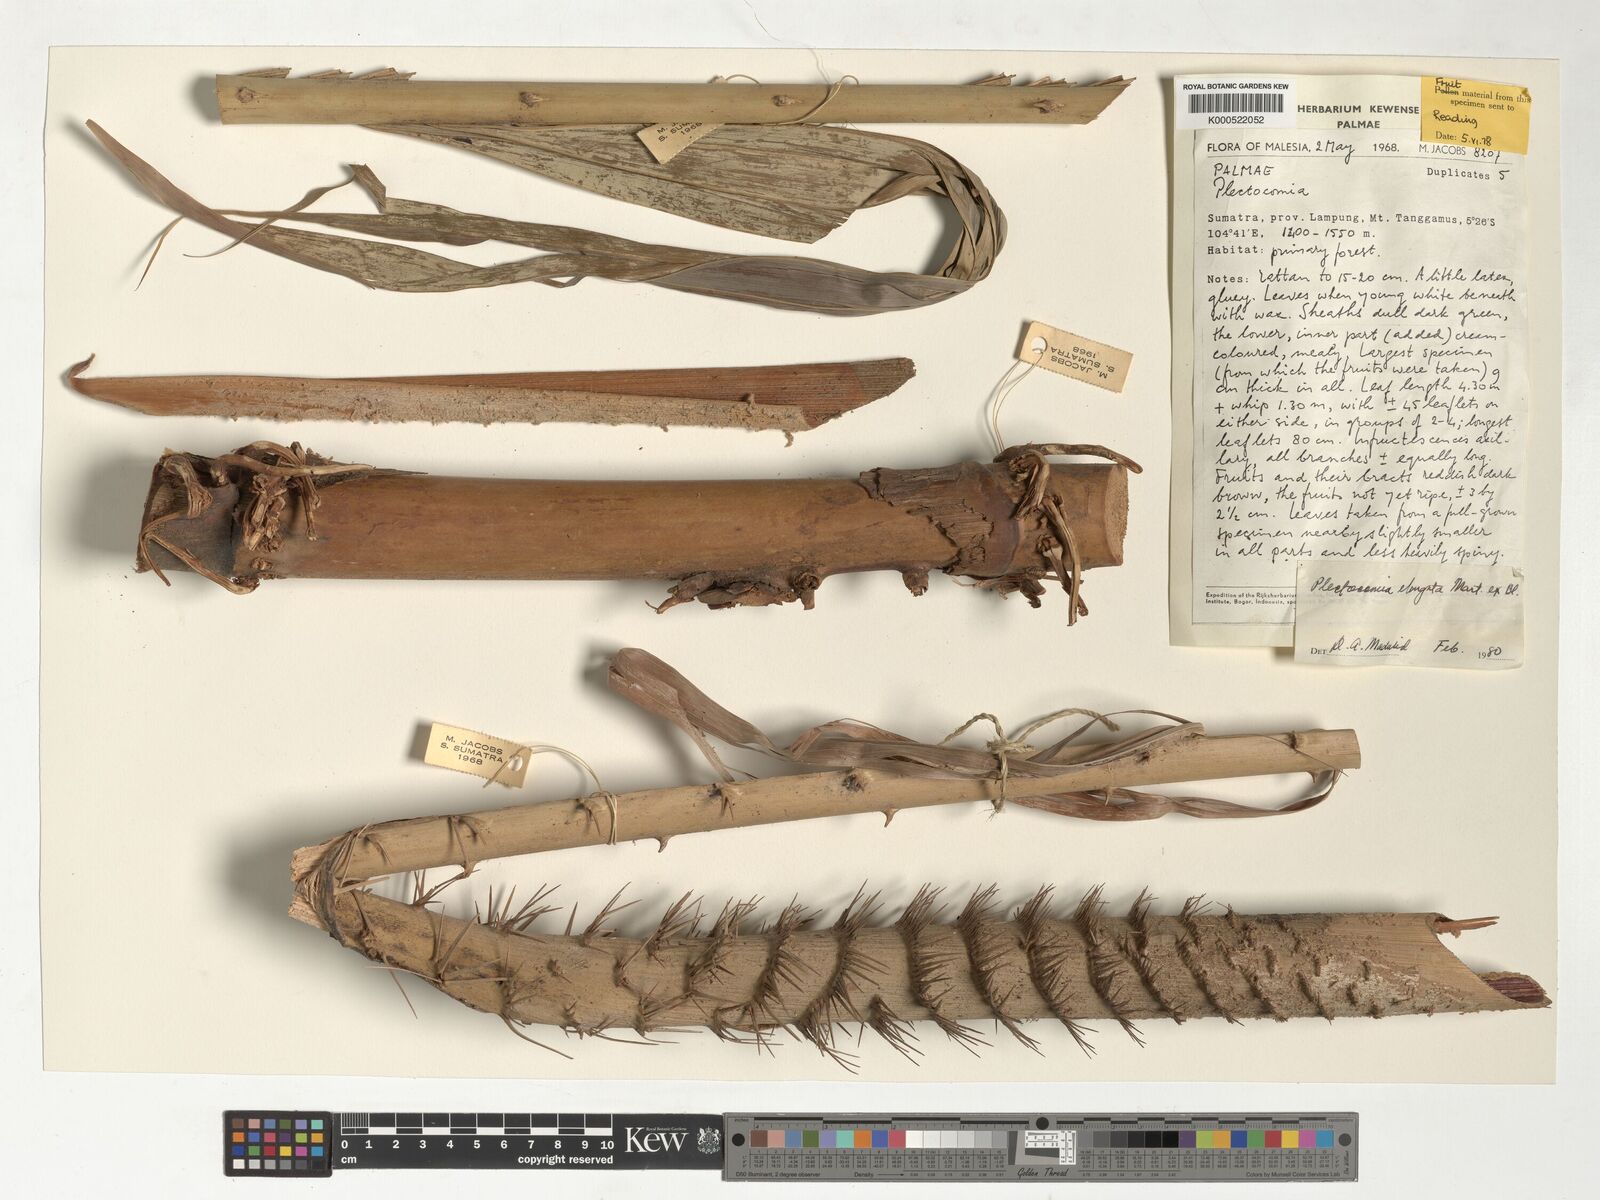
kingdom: Plantae
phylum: Tracheophyta
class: Liliopsida
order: Arecales
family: Arecaceae
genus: Plectocomia
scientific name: Plectocomia elongata
